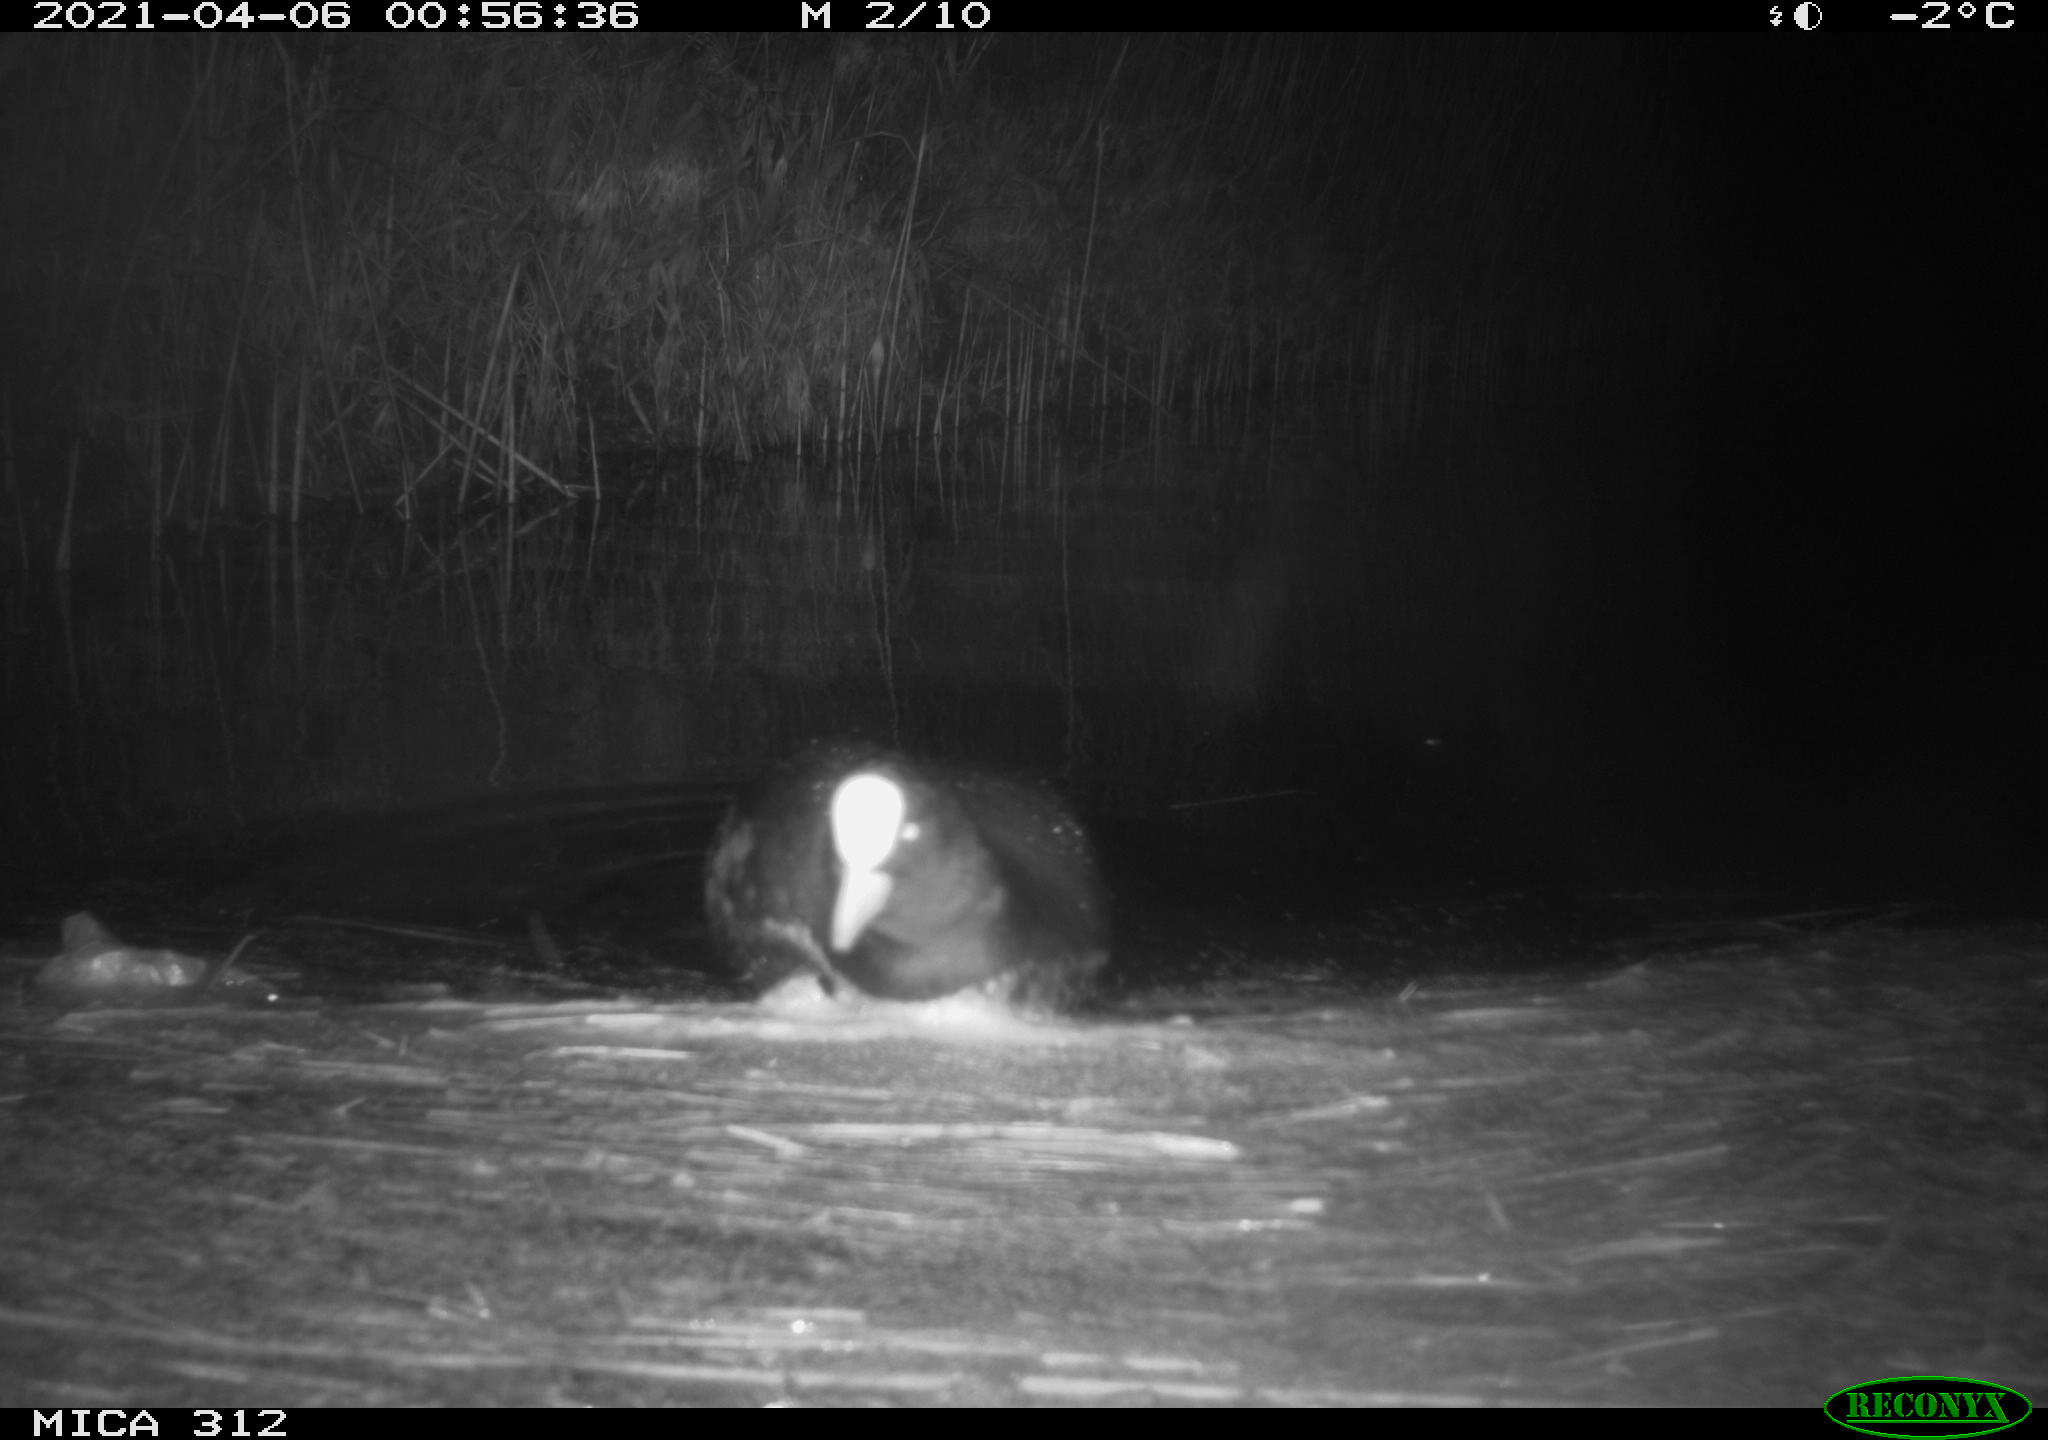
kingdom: Animalia
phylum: Chordata
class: Aves
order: Gruiformes
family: Rallidae
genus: Fulica
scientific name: Fulica atra
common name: Eurasian coot
